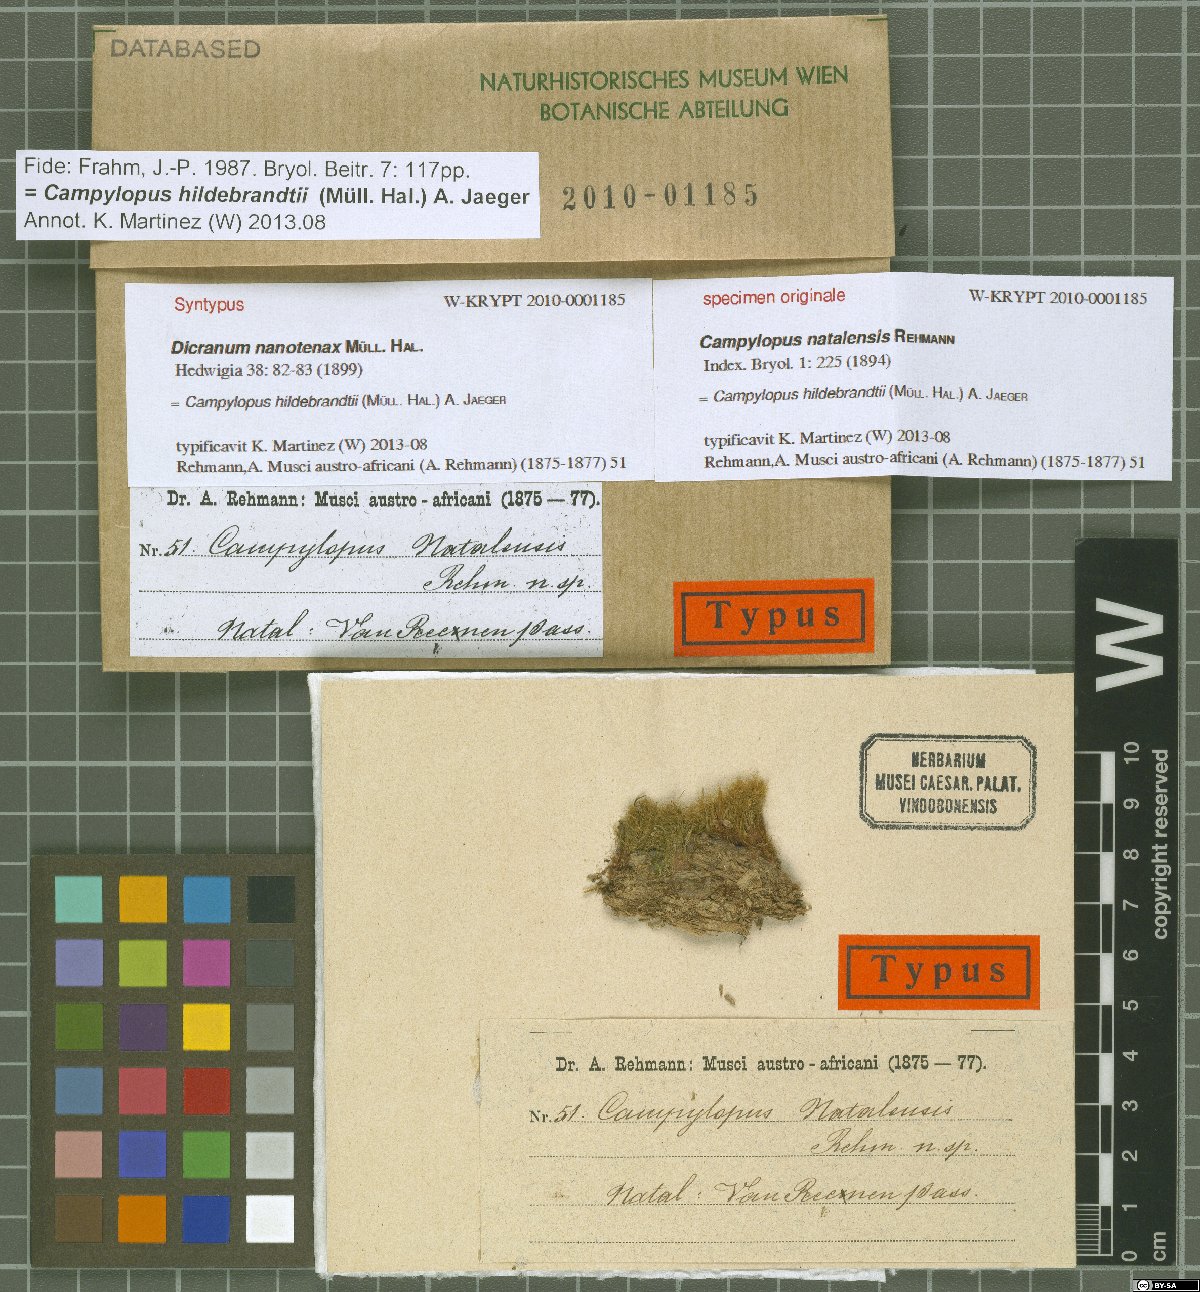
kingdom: Plantae
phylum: Bryophyta
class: Bryopsida
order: Dicranales
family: Leucobryaceae
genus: Campylopus
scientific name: Campylopus robillardii
